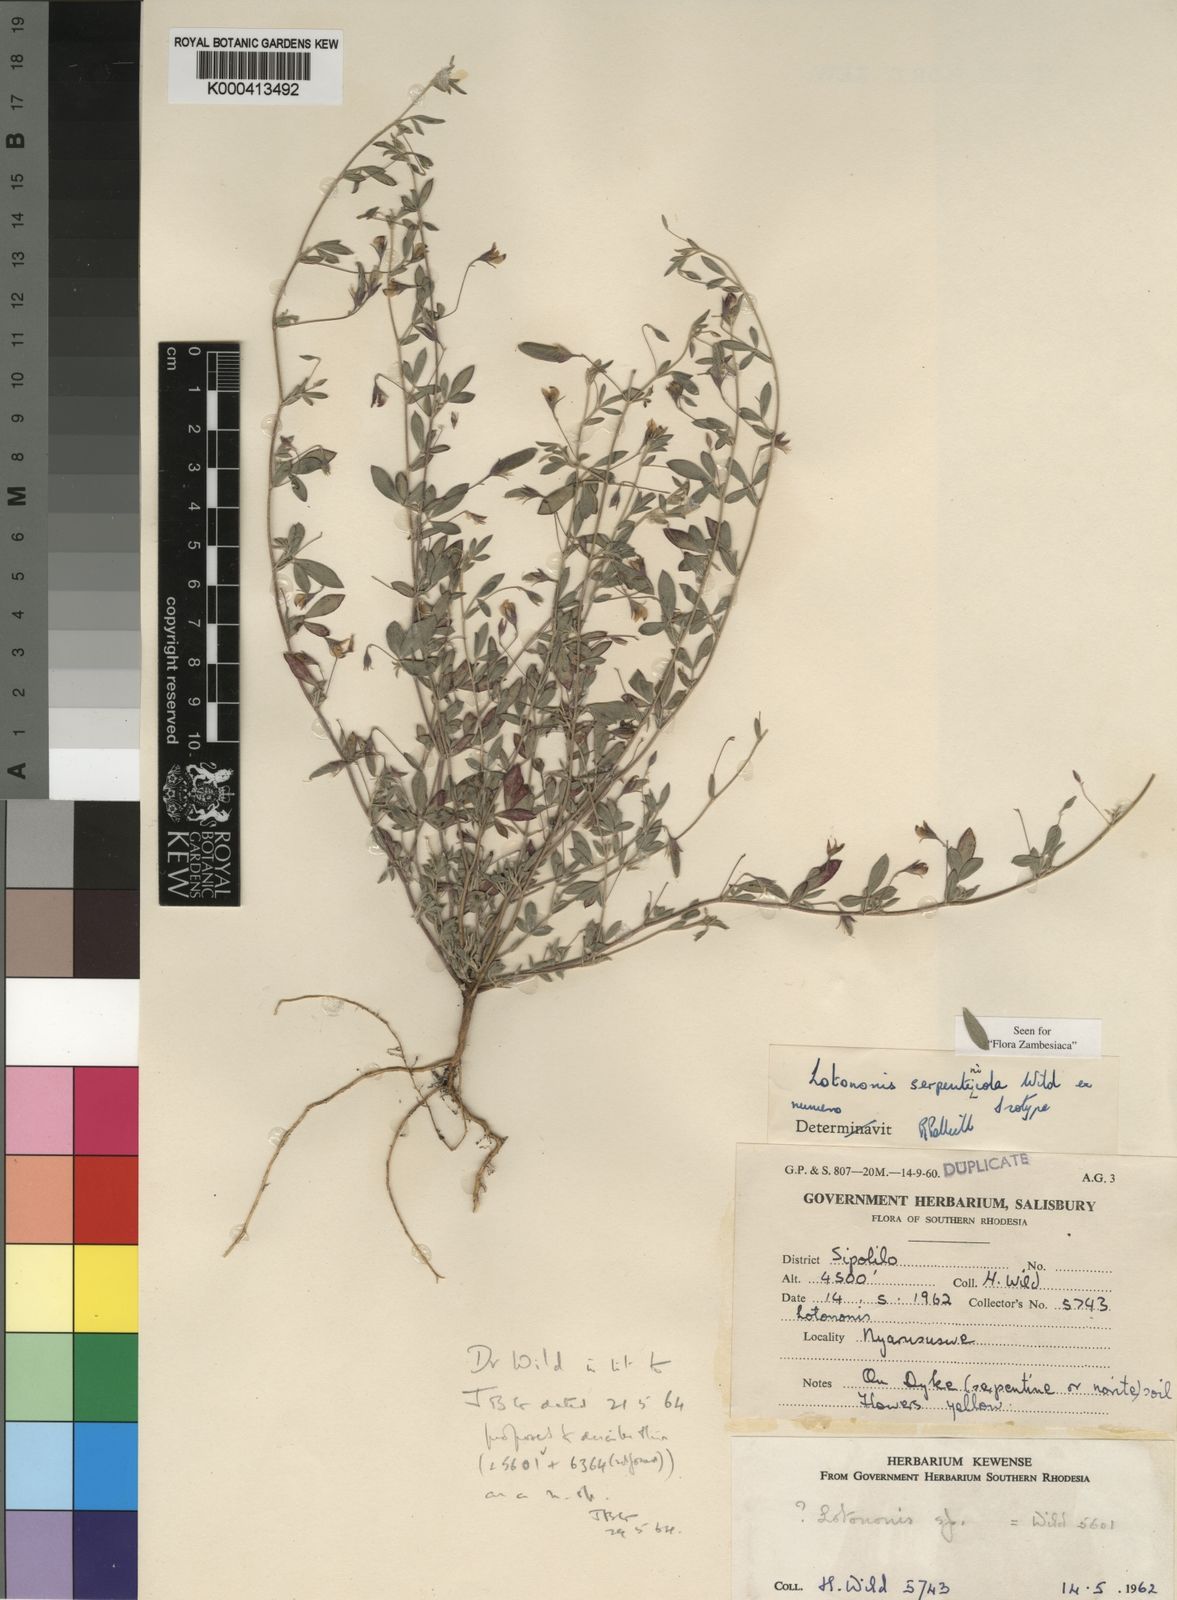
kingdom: Plantae
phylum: Tracheophyta
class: Magnoliopsida
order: Fabales
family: Fabaceae
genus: Lotononis
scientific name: Lotononis serpentinicola
